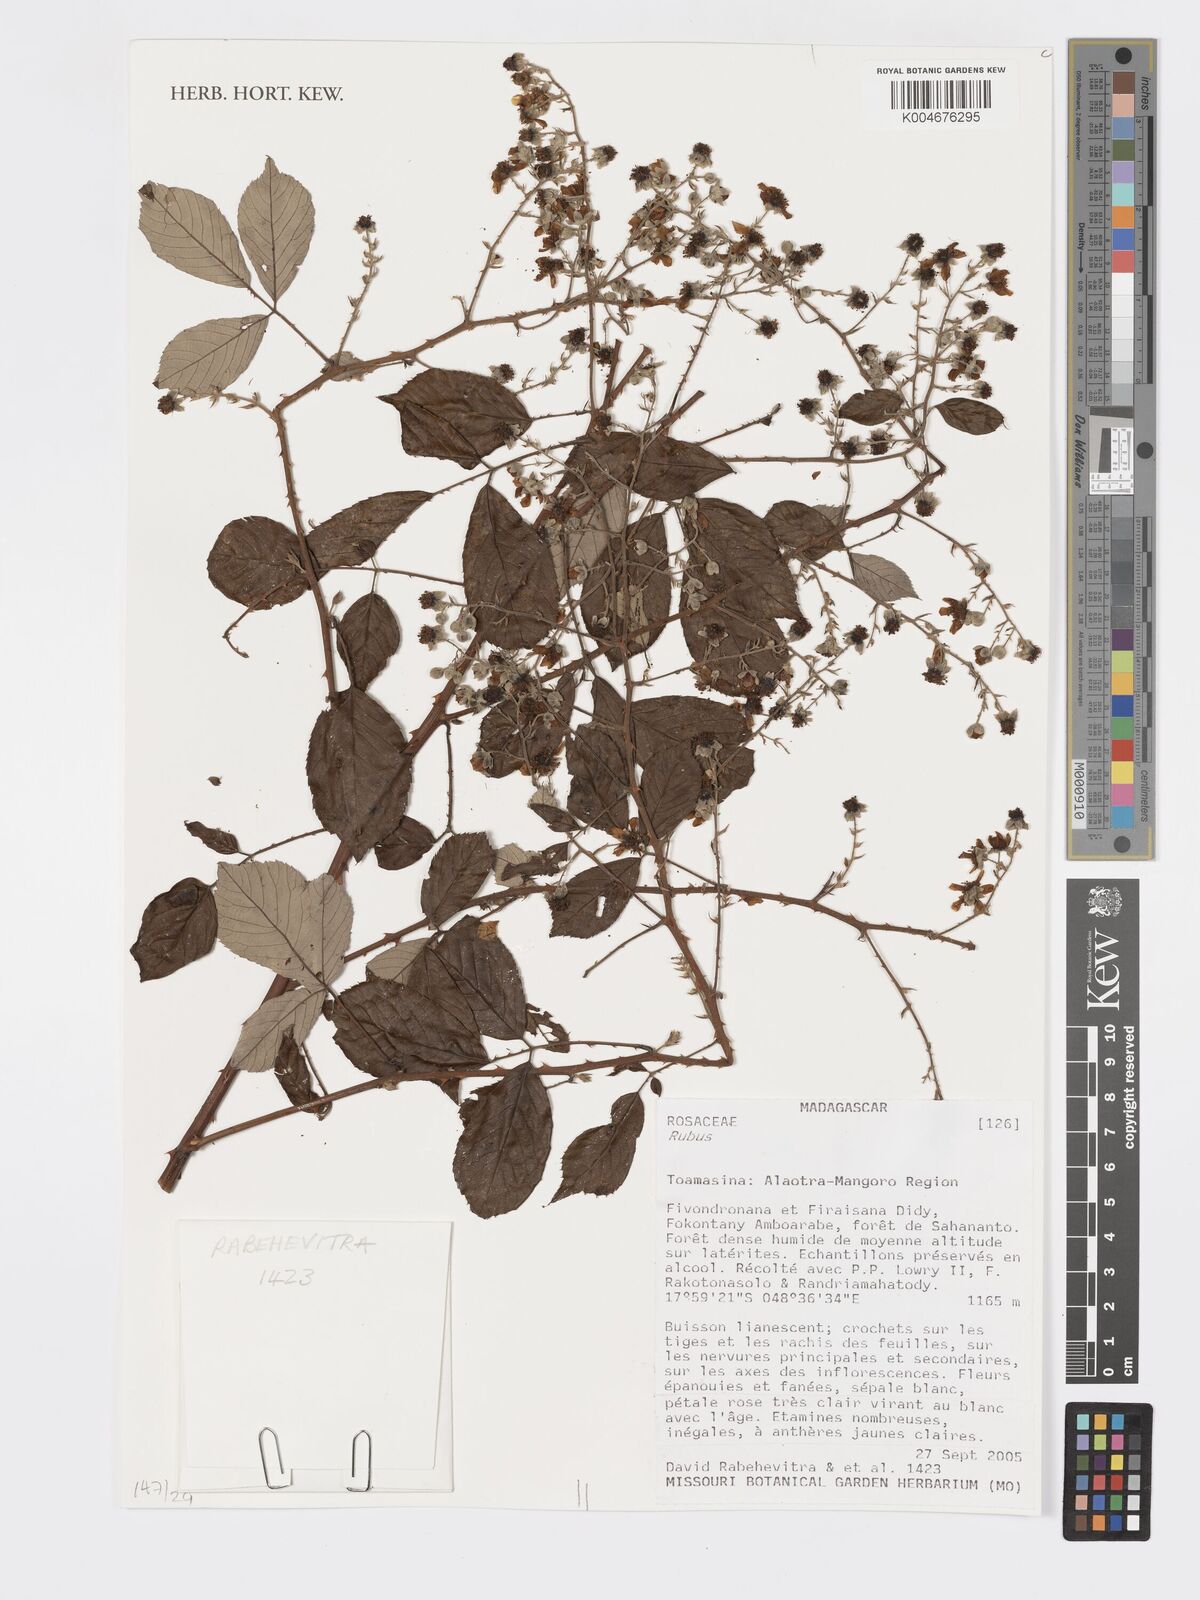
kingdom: Plantae
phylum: Tracheophyta
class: Magnoliopsida
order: Rosales
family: Rosaceae
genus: Rubus
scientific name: Rubus
